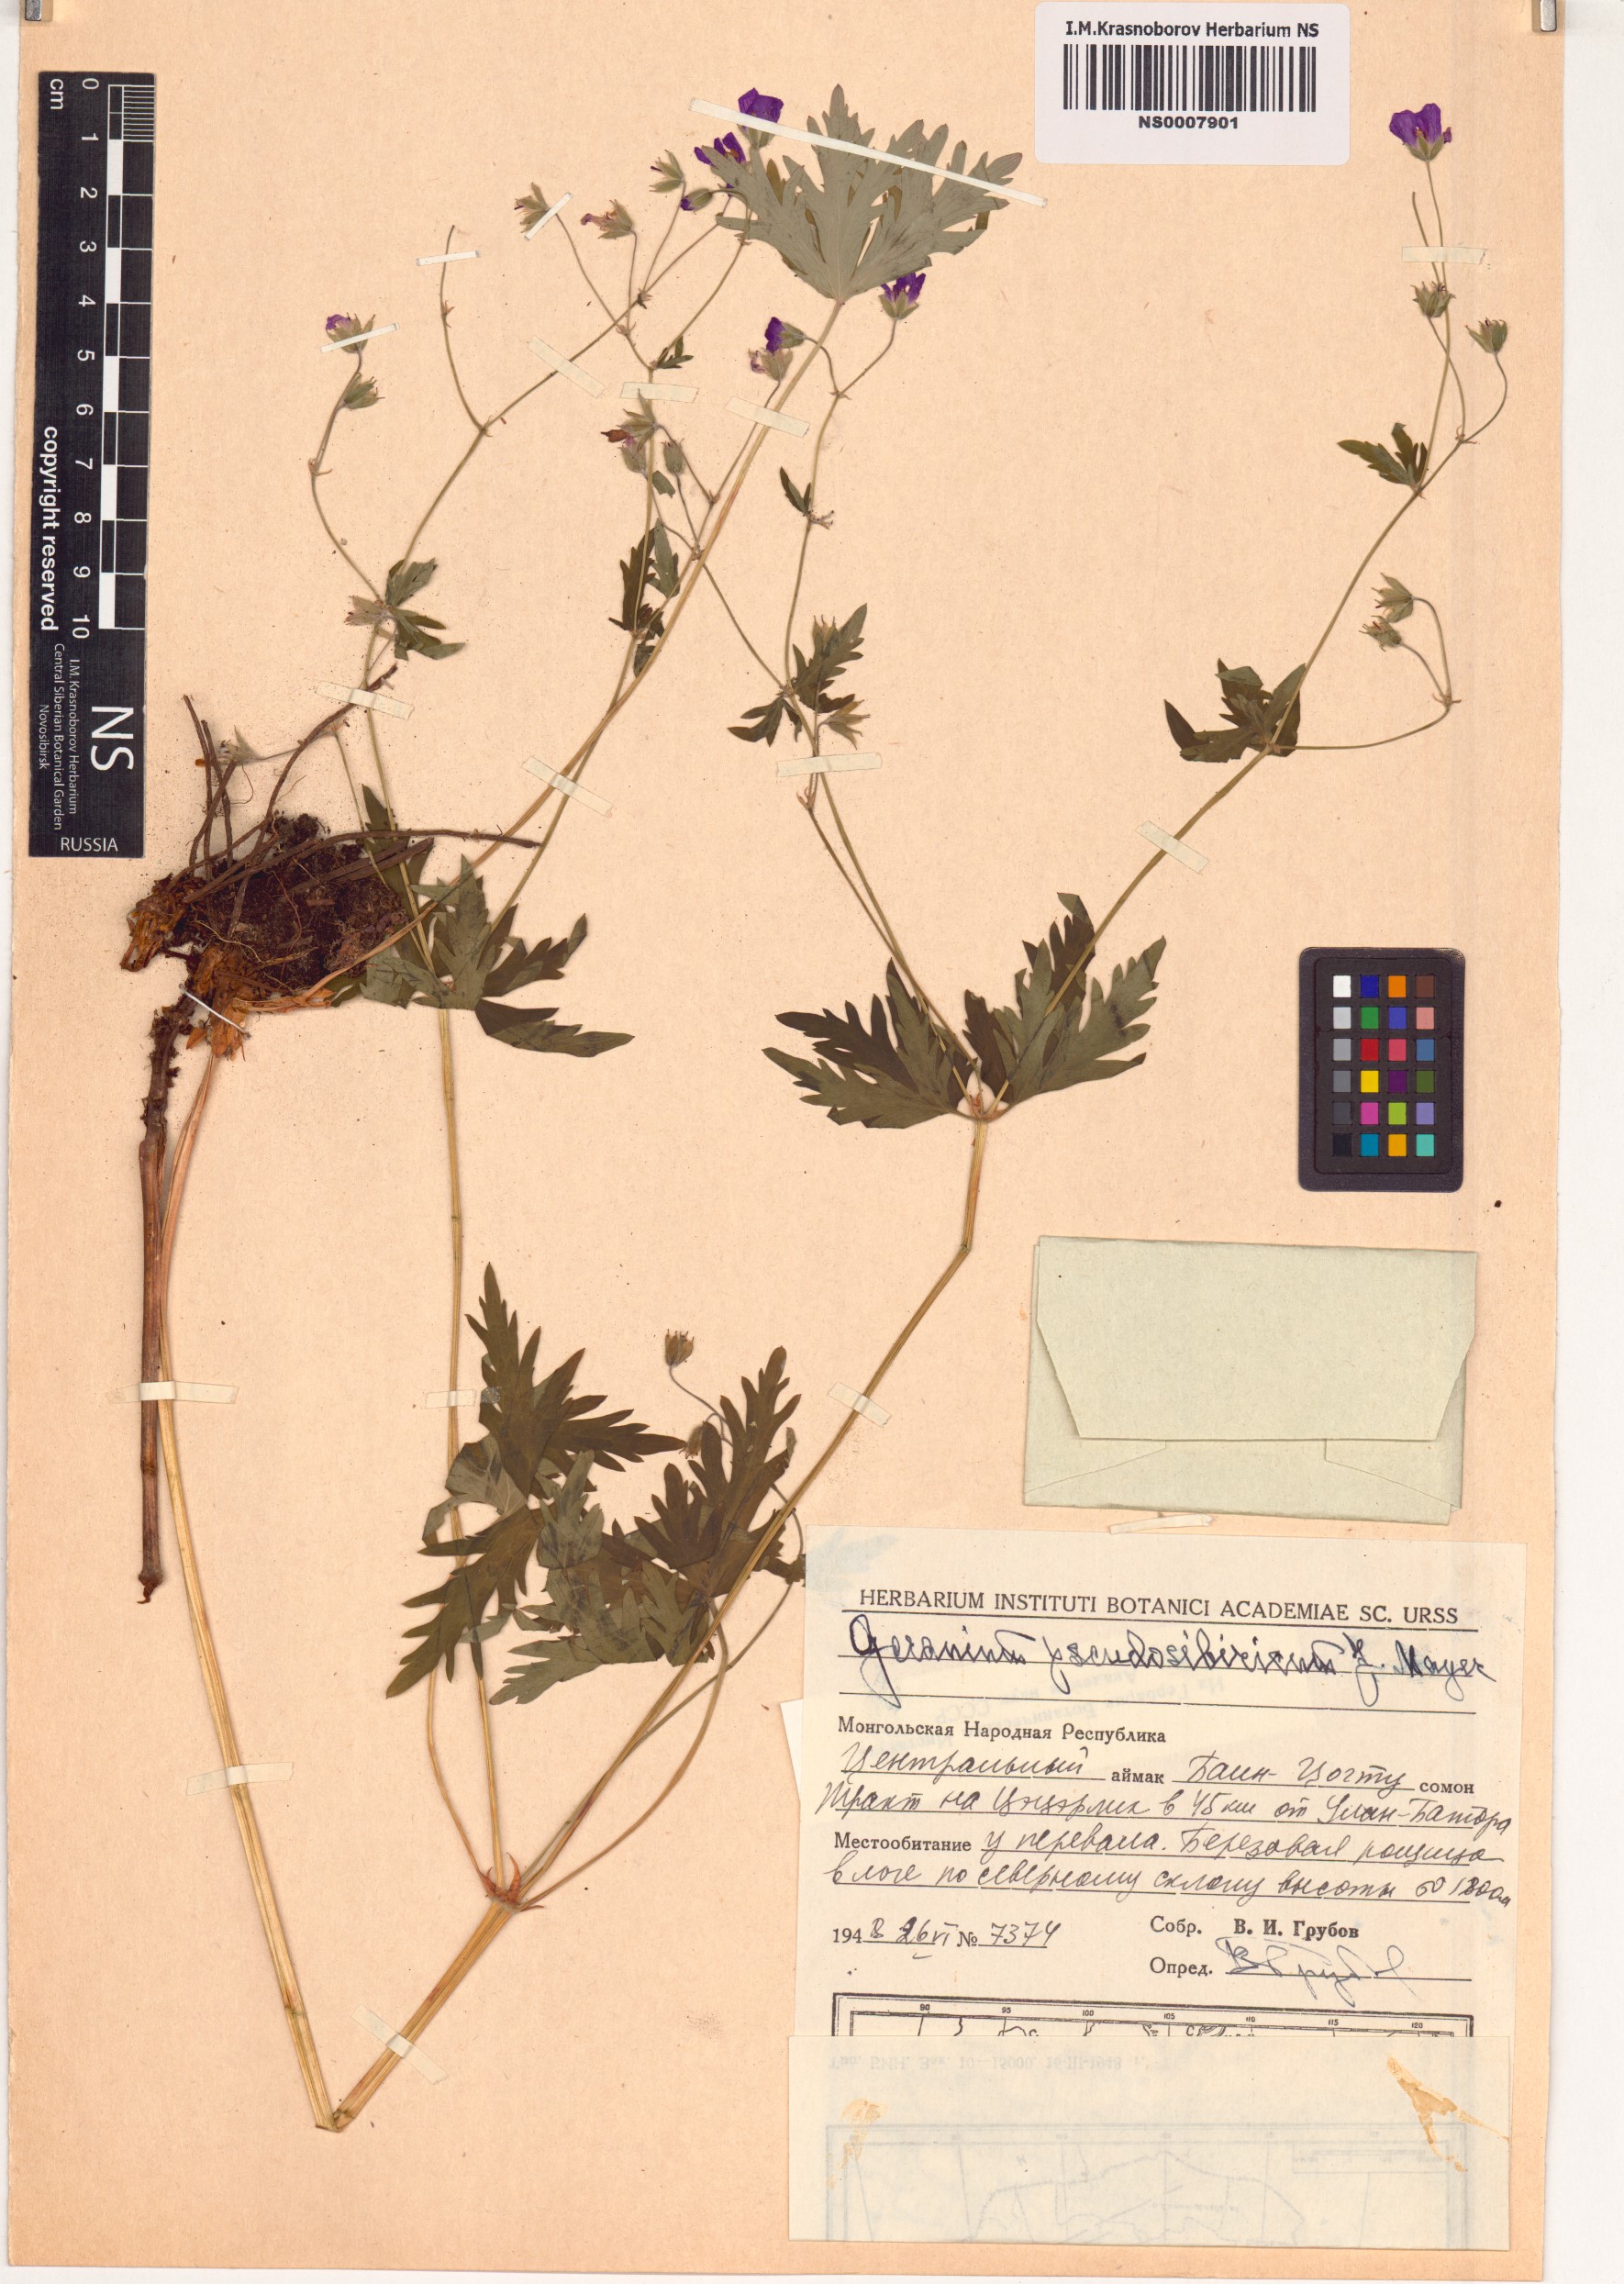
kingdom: Plantae
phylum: Tracheophyta
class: Magnoliopsida
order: Geraniales
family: Geraniaceae
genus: Geranium
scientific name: Geranium pseudosibiricum
